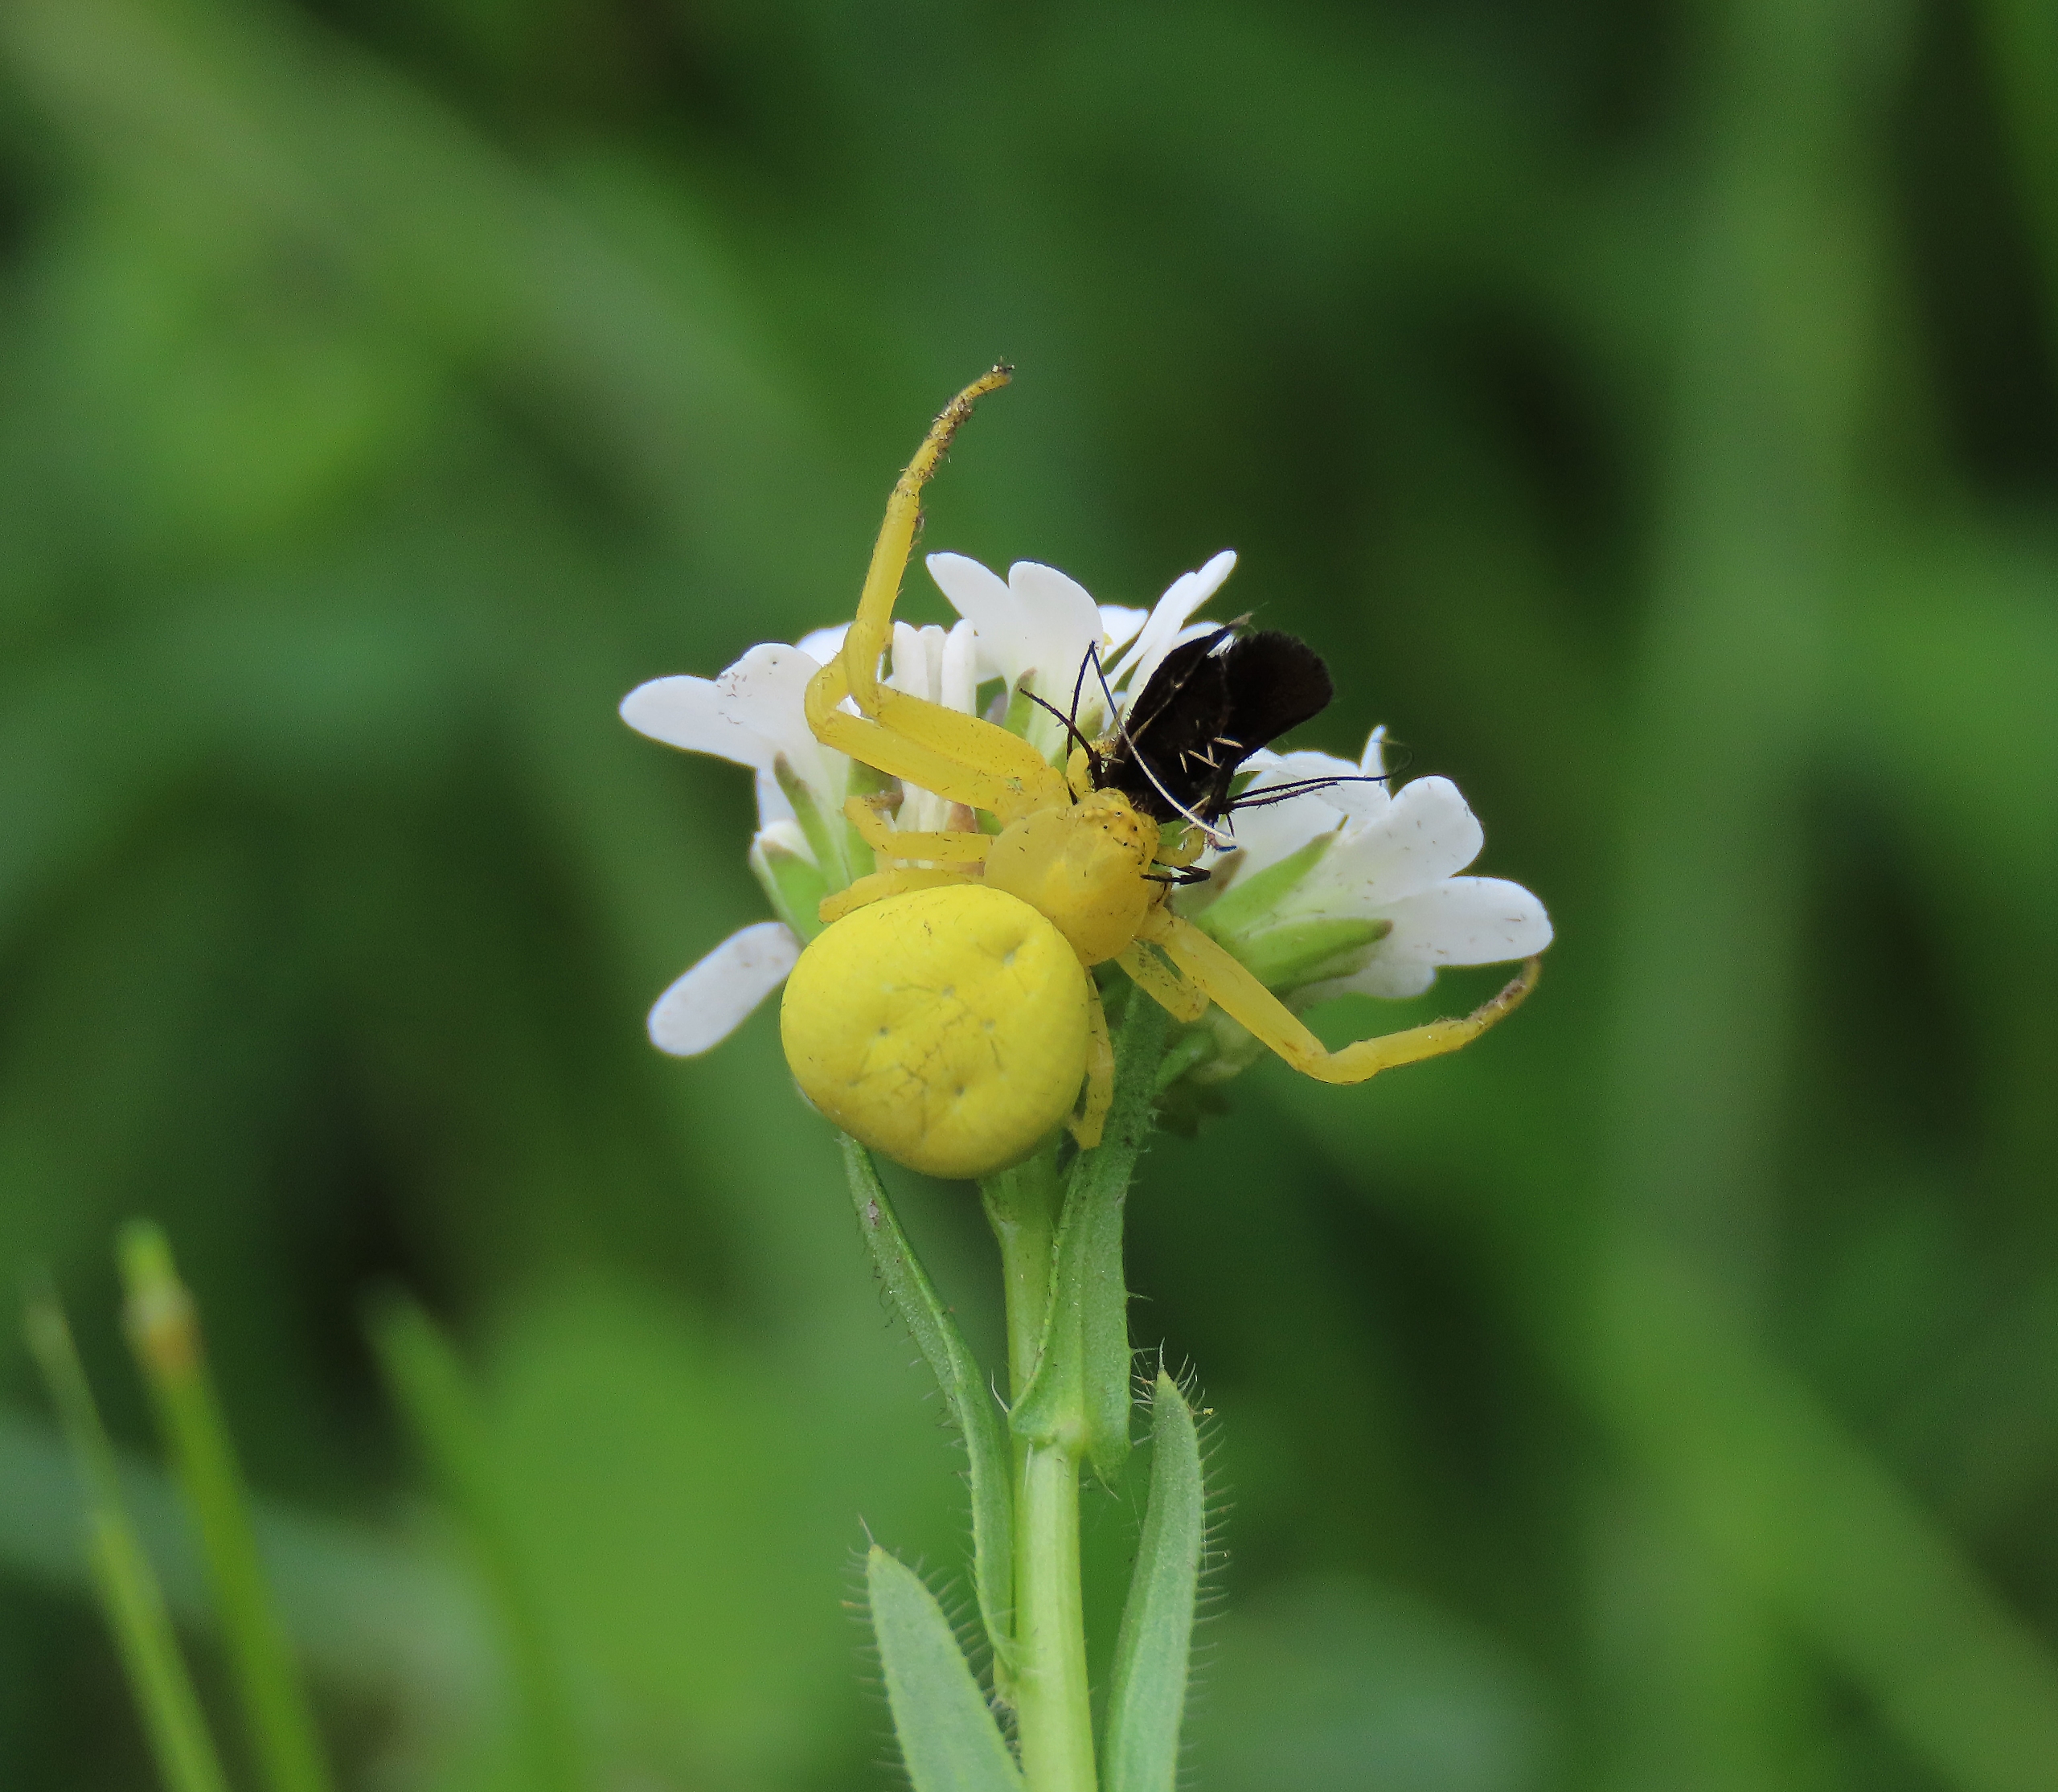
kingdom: Animalia
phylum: Arthropoda
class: Arachnida
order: Araneae
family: Thomisidae
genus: Misumena
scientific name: Misumena vatia
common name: Kamæleonedderkop
